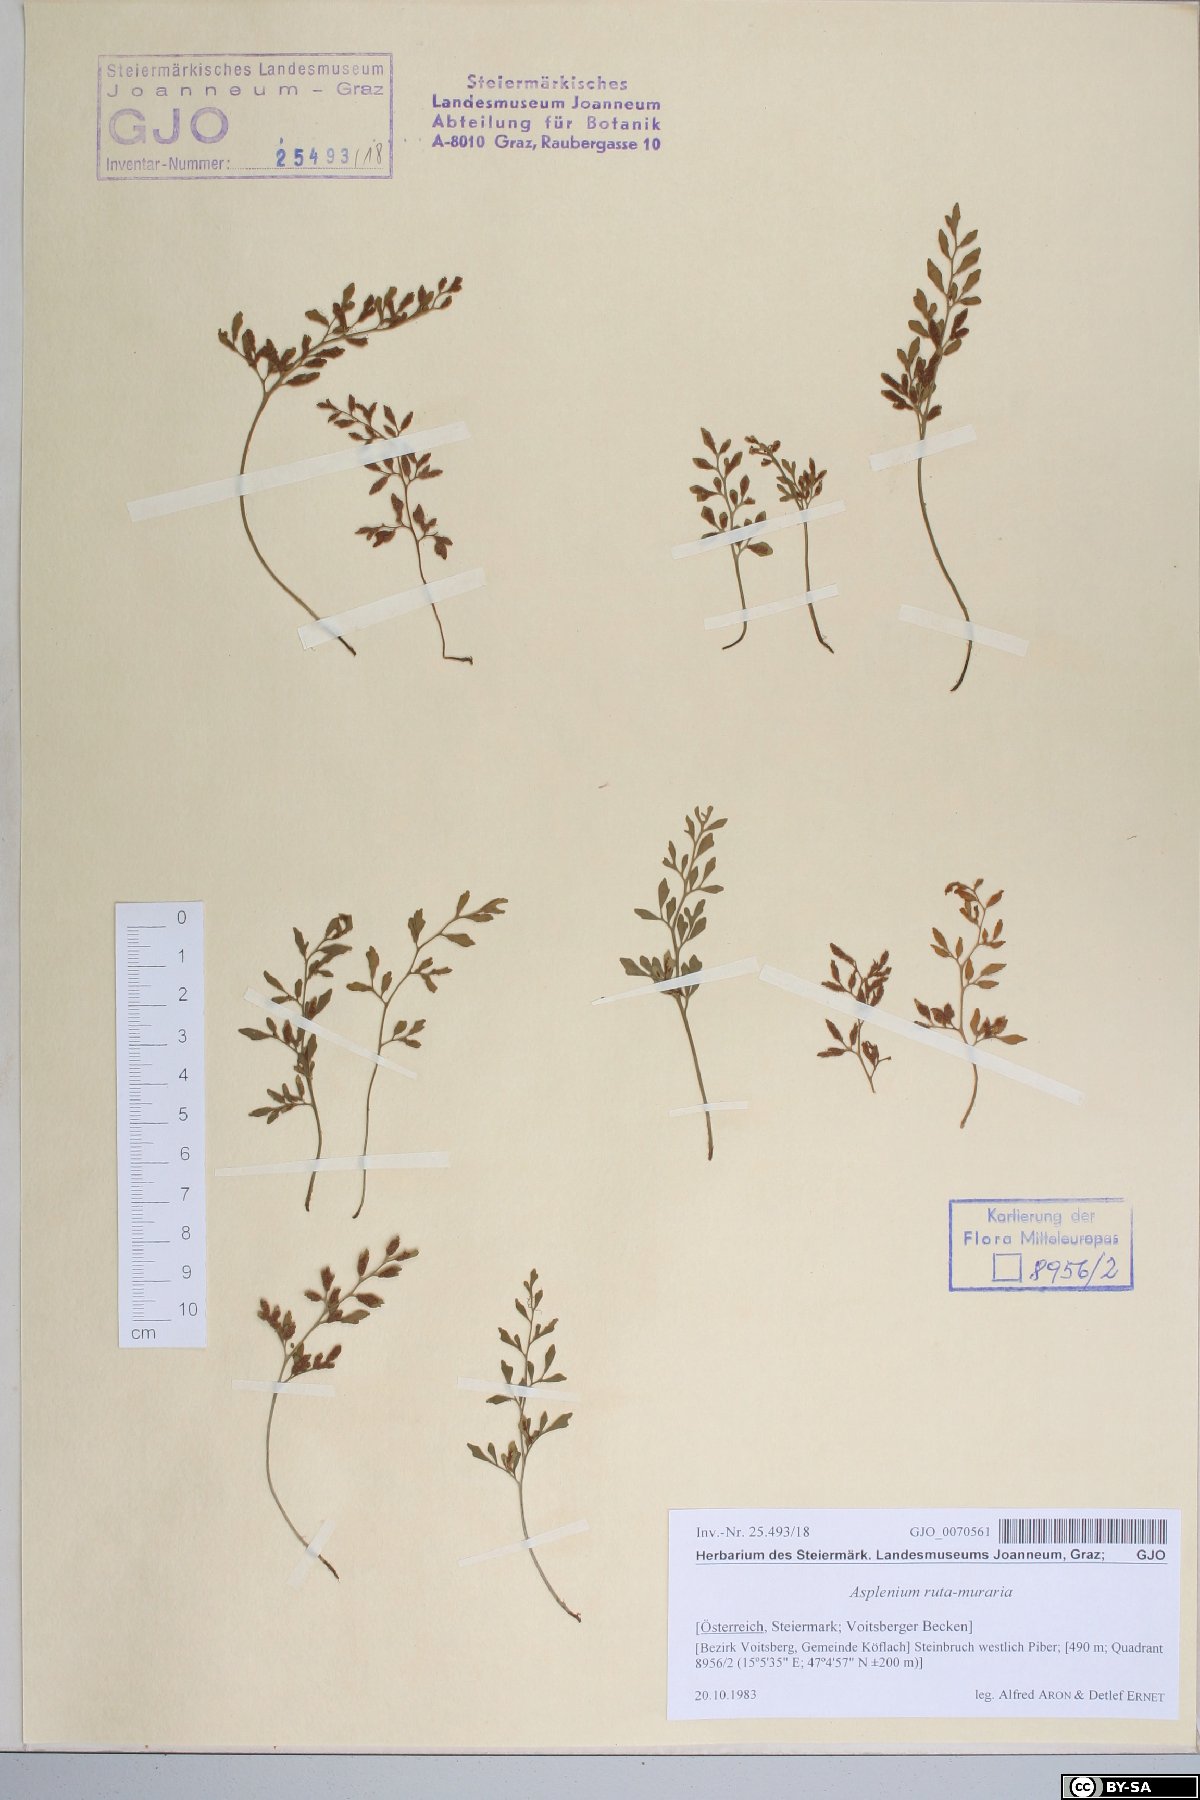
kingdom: Plantae
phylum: Tracheophyta
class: Polypodiopsida
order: Polypodiales
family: Aspleniaceae
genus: Asplenium
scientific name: Asplenium ruta-muraria
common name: Wall-rue
